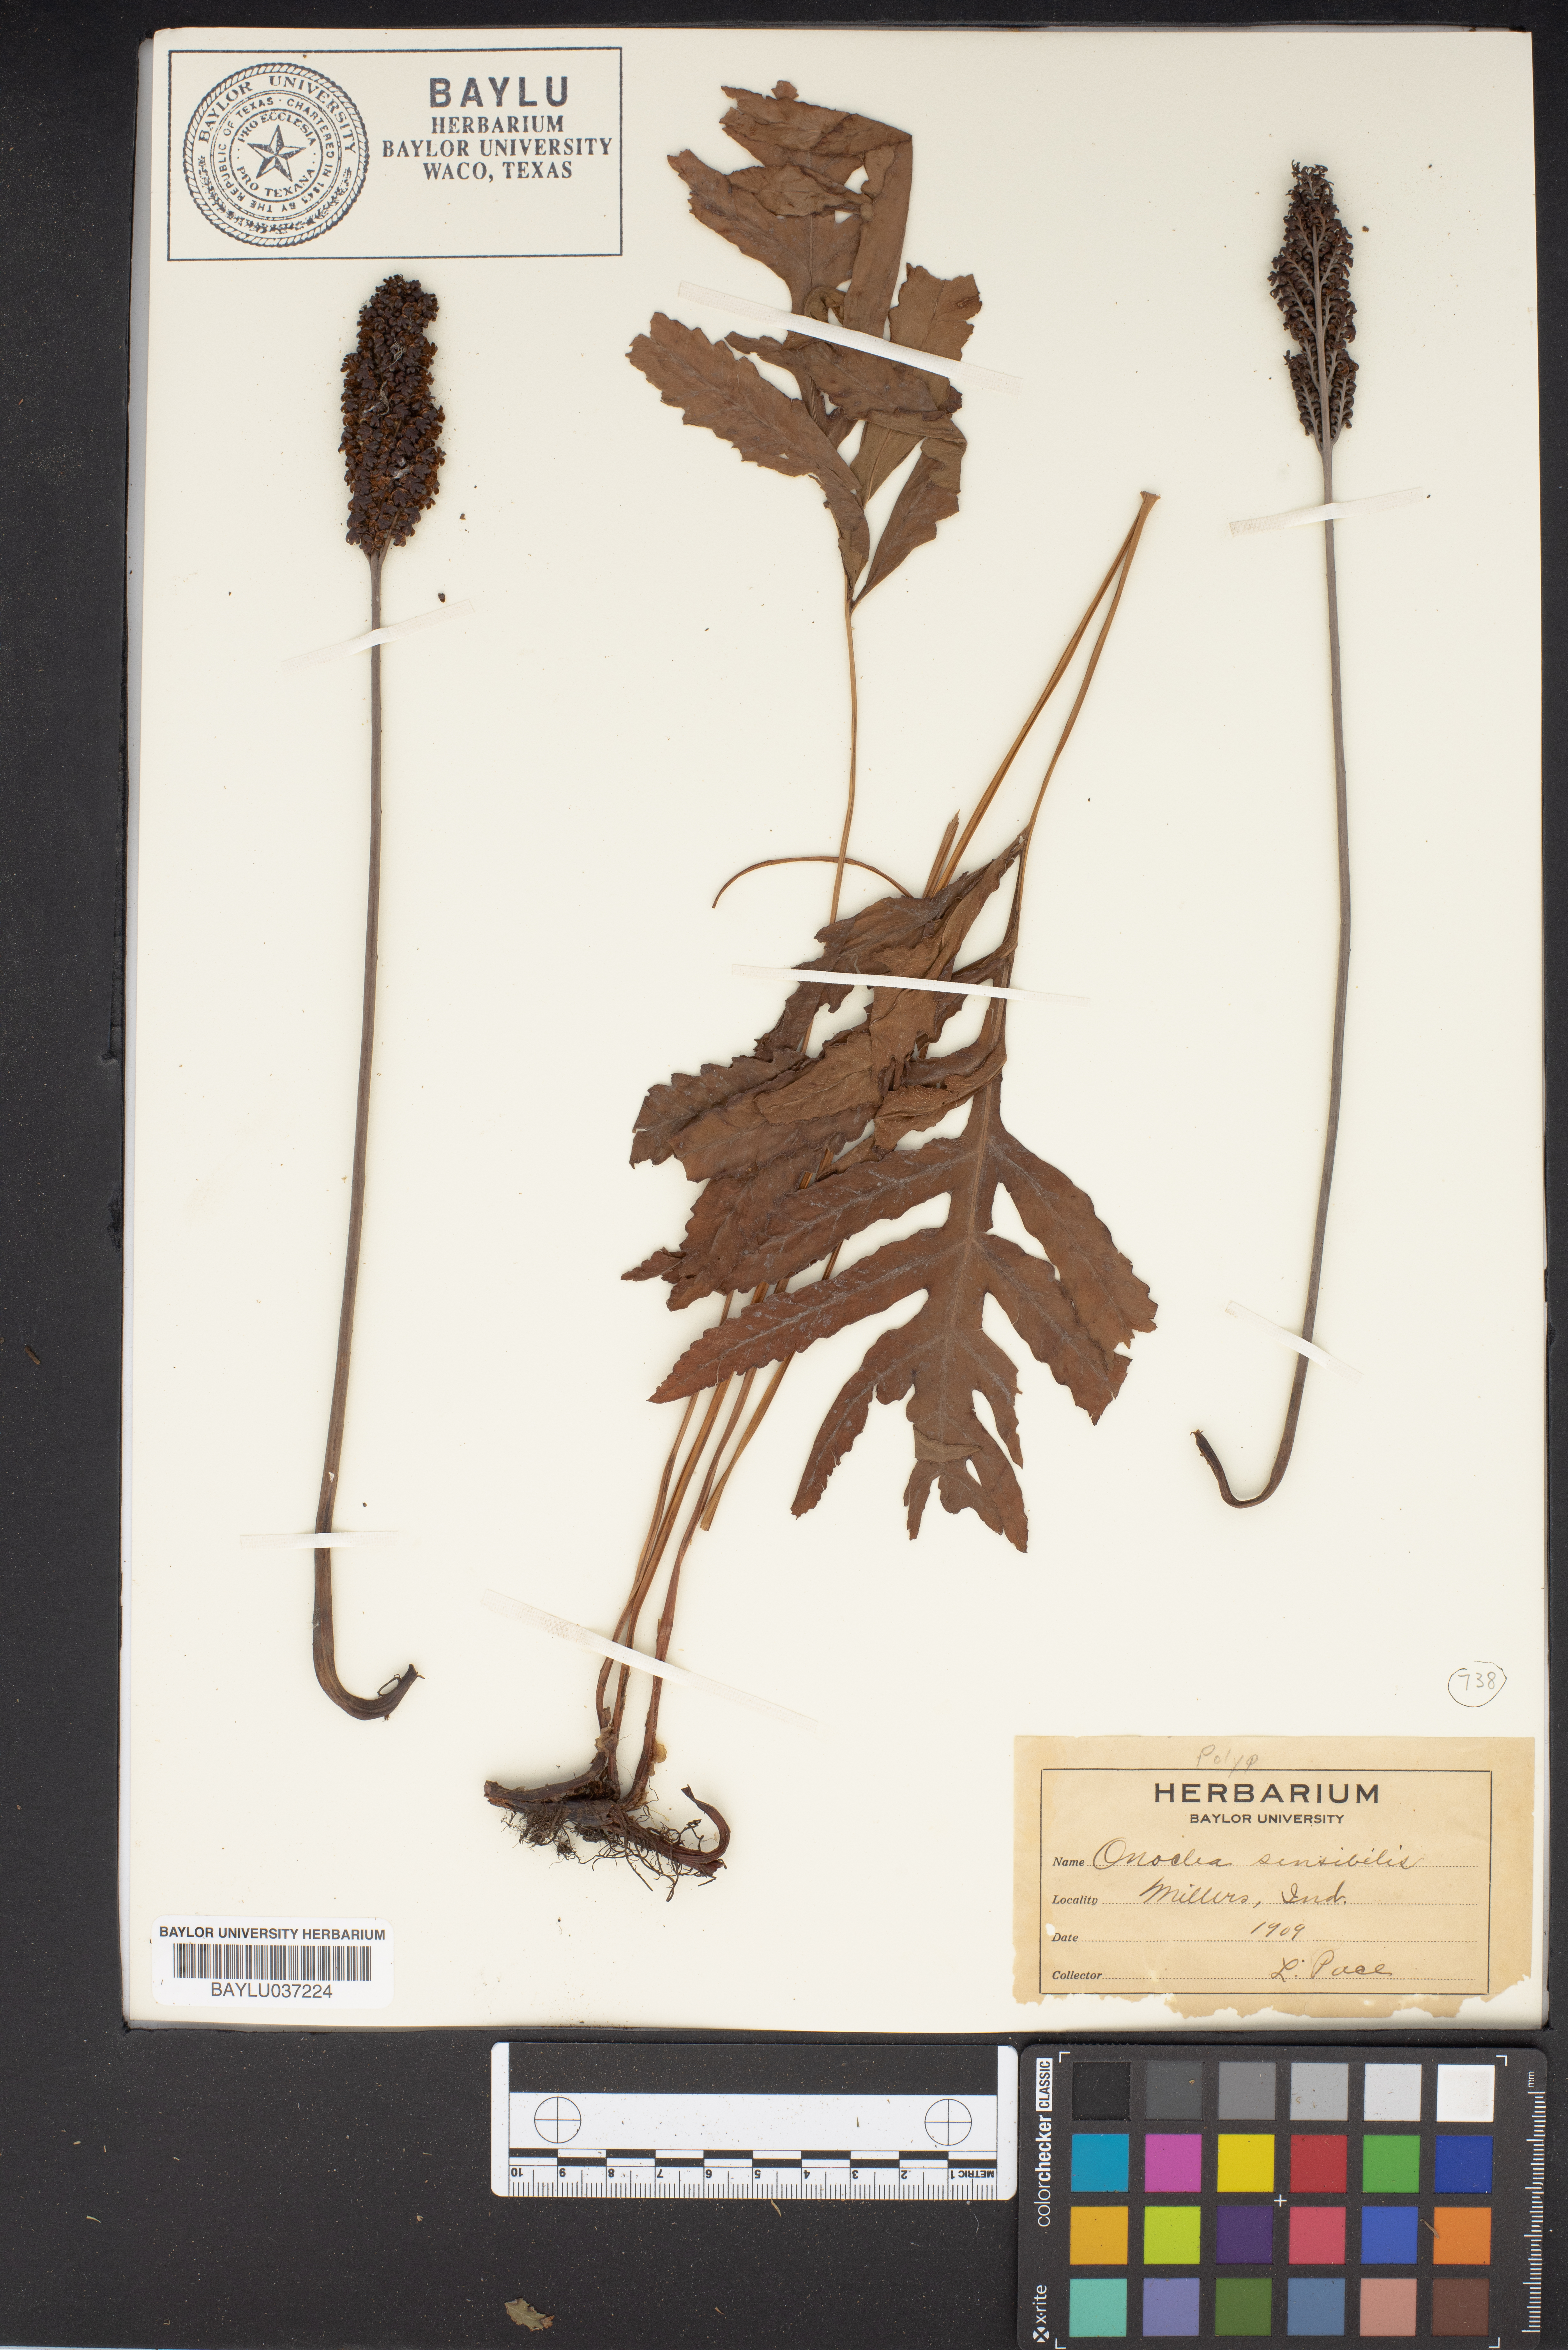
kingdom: Plantae
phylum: Tracheophyta
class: Polypodiopsida
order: Polypodiales
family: Onocleaceae
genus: Onoclea
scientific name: Onoclea sensibilis
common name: Sensitive fern
